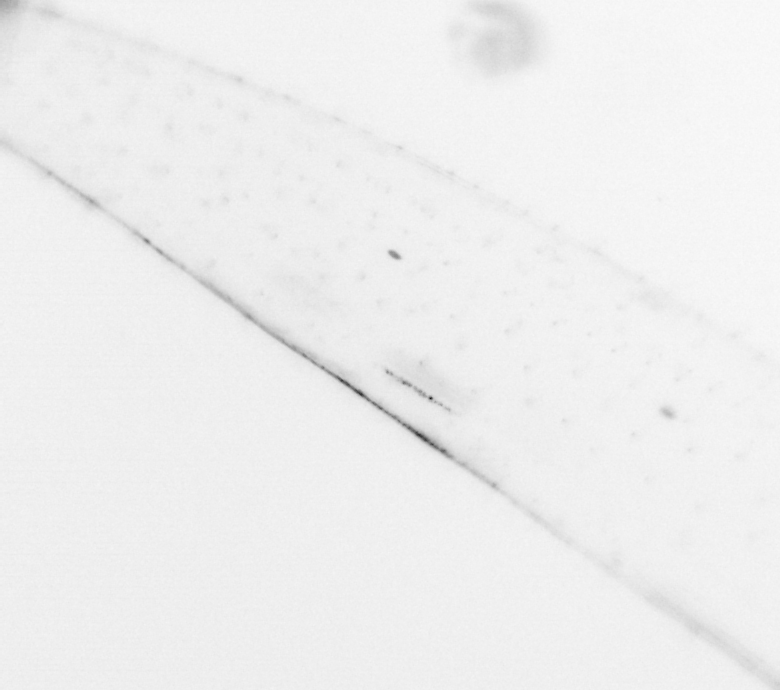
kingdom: Animalia
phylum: Chaetognatha
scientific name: Chaetognatha
